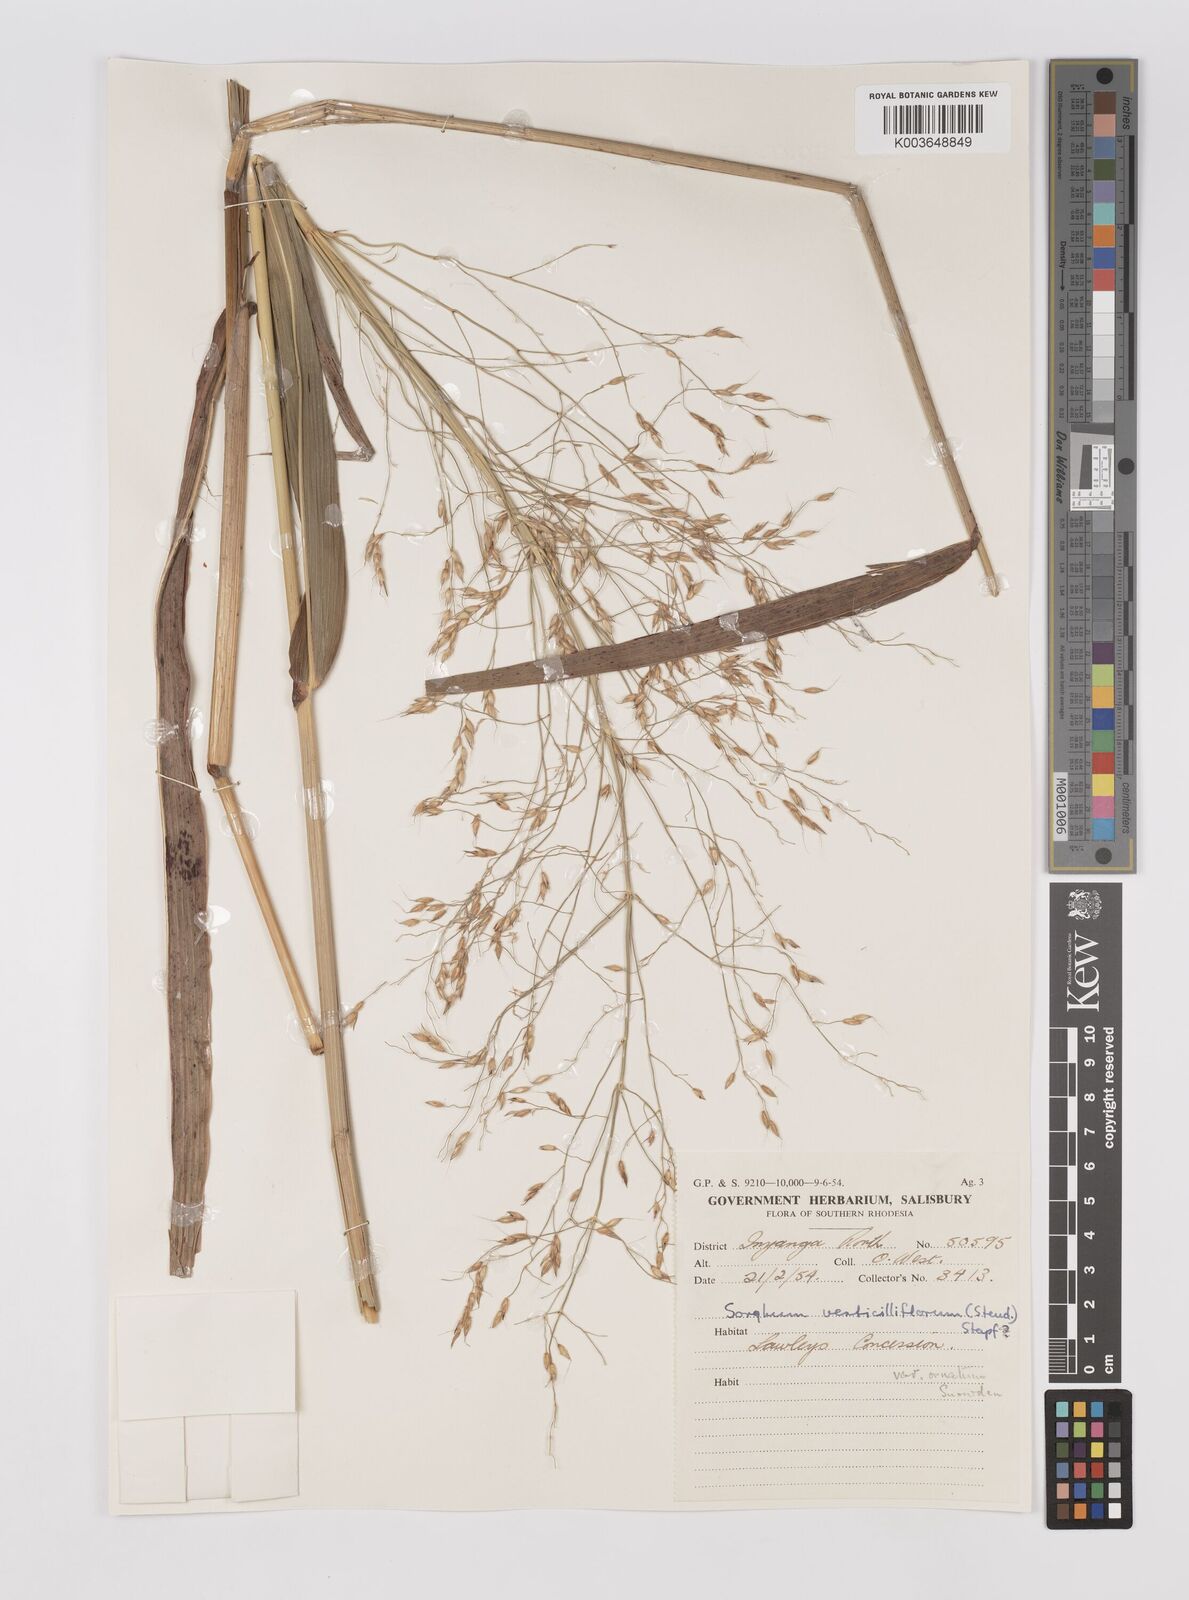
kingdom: Plantae
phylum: Tracheophyta
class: Liliopsida
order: Poales
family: Poaceae
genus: Sorghum
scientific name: Sorghum arundinaceum
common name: Sorghum
